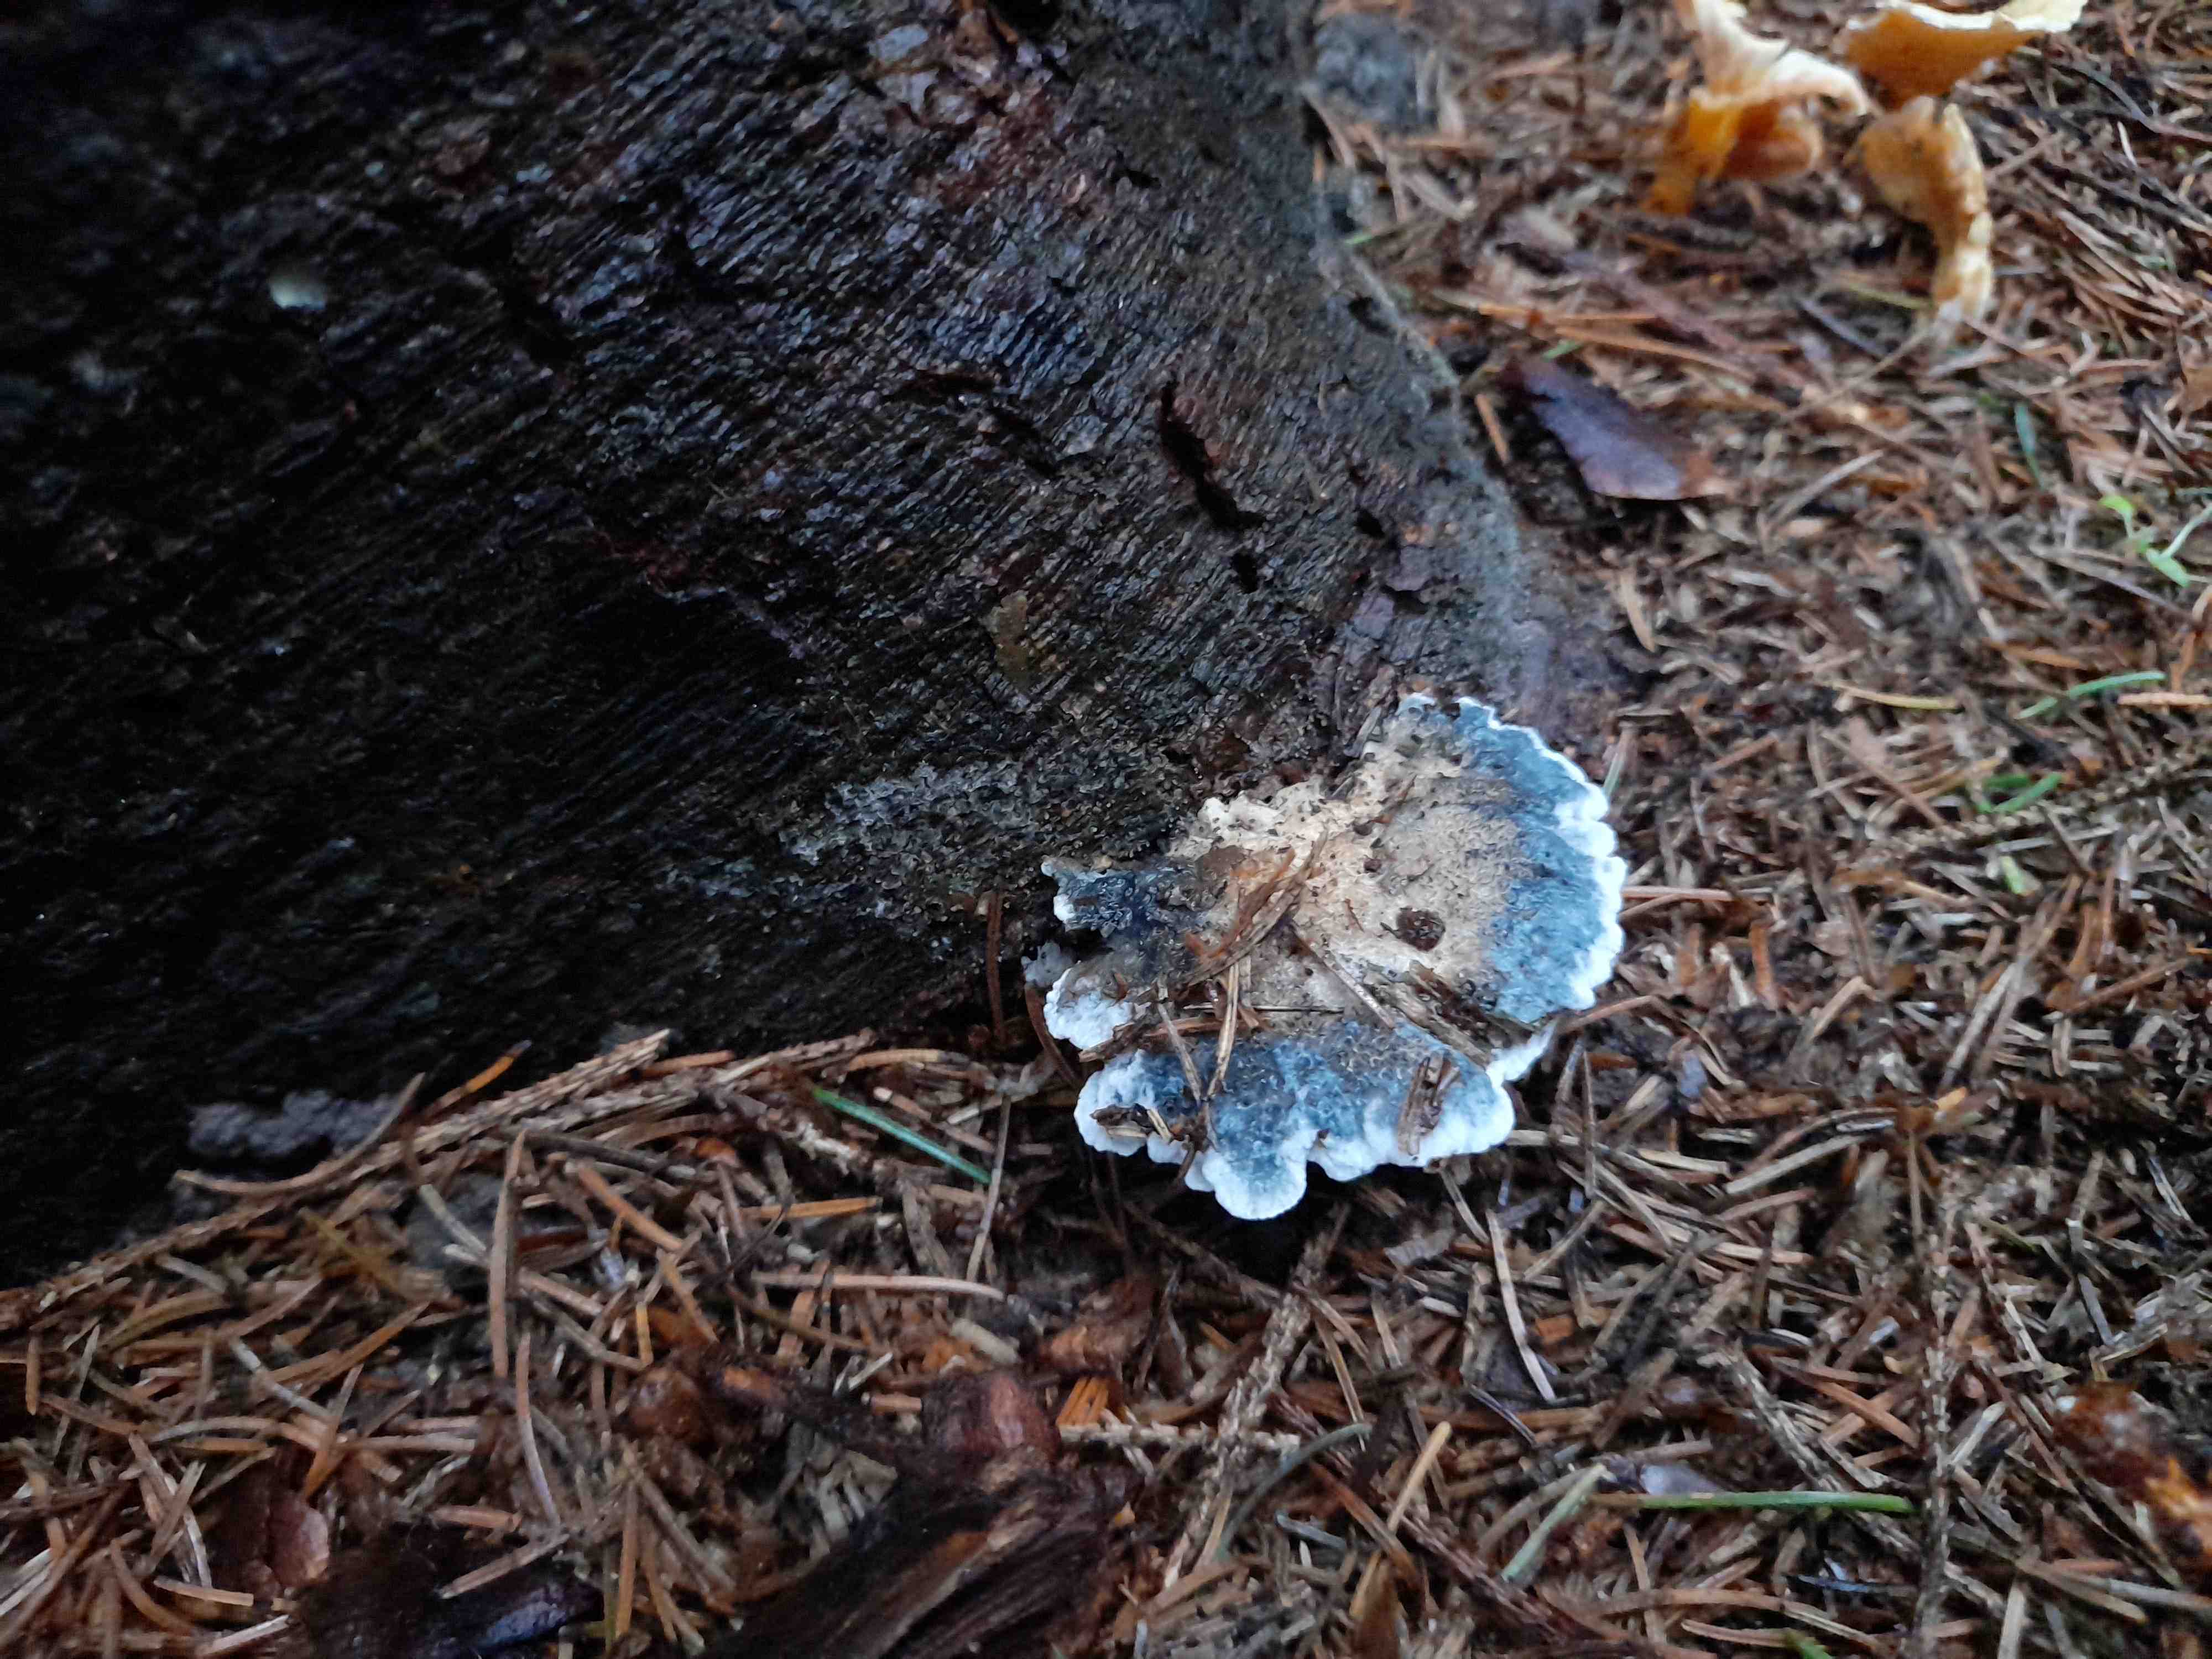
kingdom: Fungi
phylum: Basidiomycota
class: Agaricomycetes
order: Polyporales
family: Polyporaceae
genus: Cyanosporus
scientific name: Cyanosporus caesius
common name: blålig kødporesvamp
